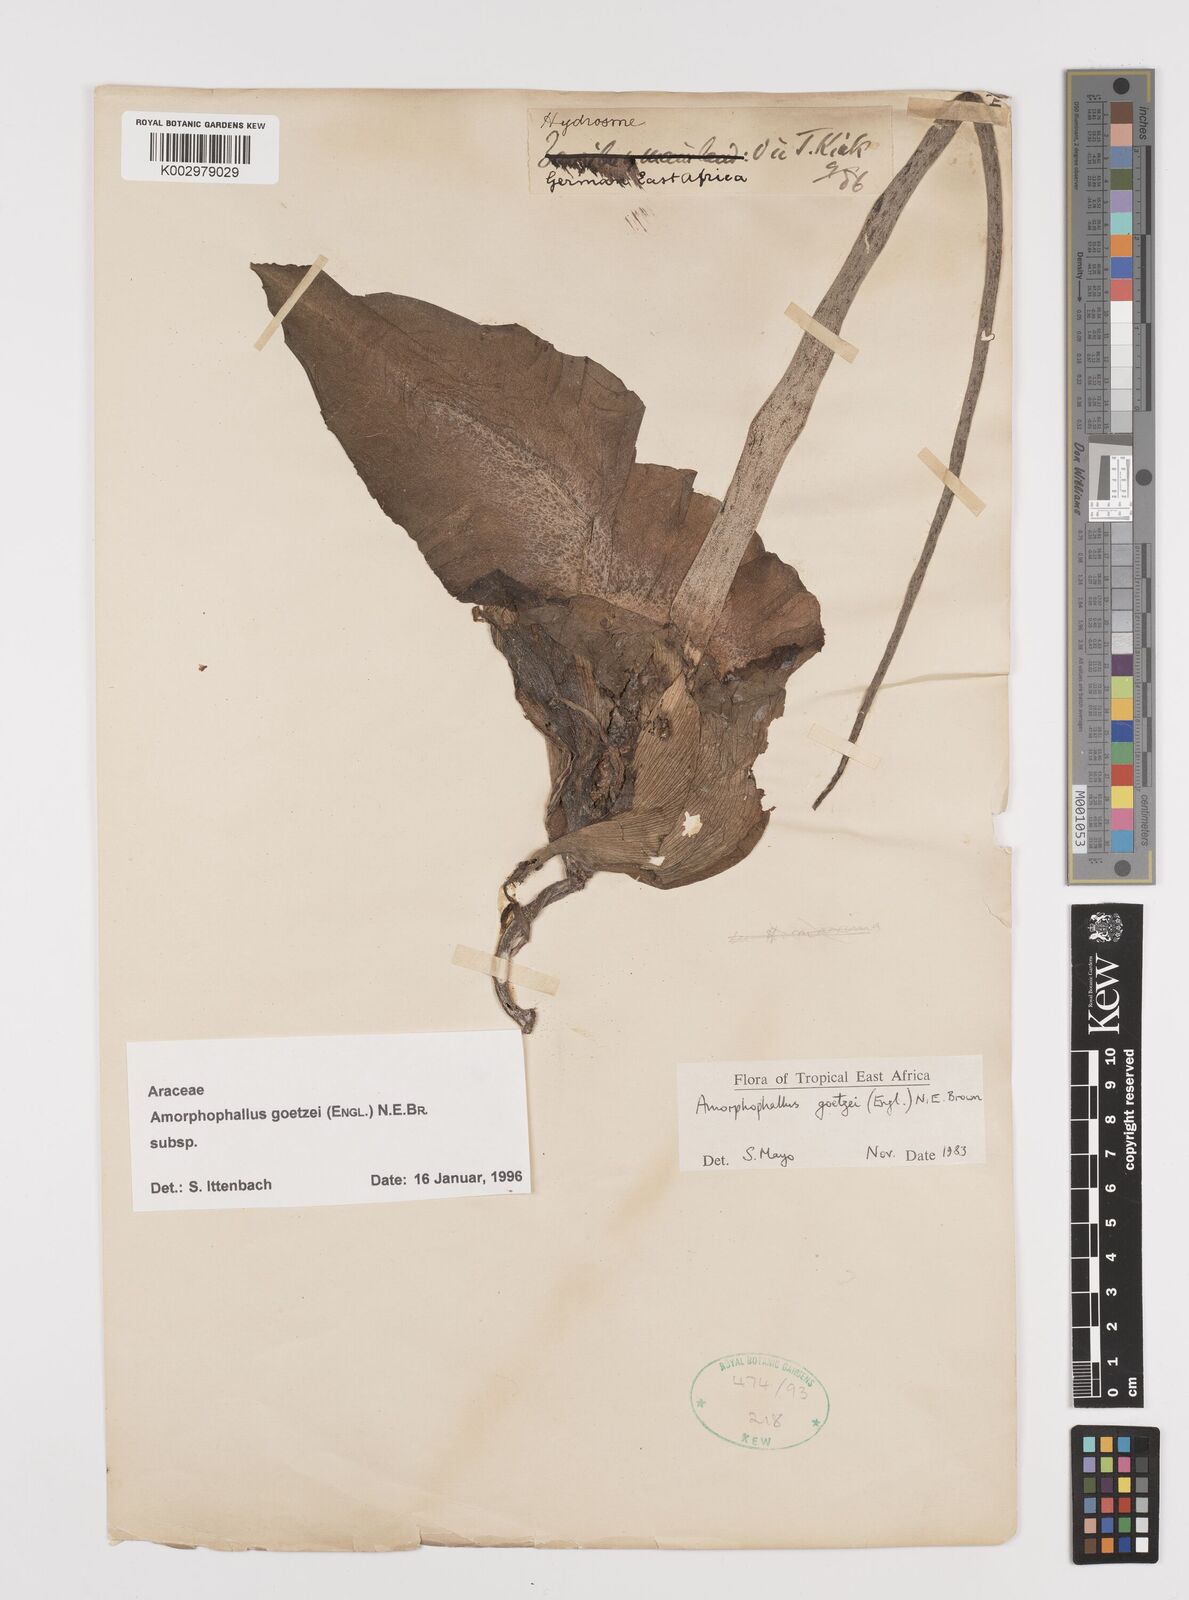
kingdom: Plantae
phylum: Tracheophyta
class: Liliopsida
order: Alismatales
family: Araceae
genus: Amorphophallus
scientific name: Amorphophallus goetzei
